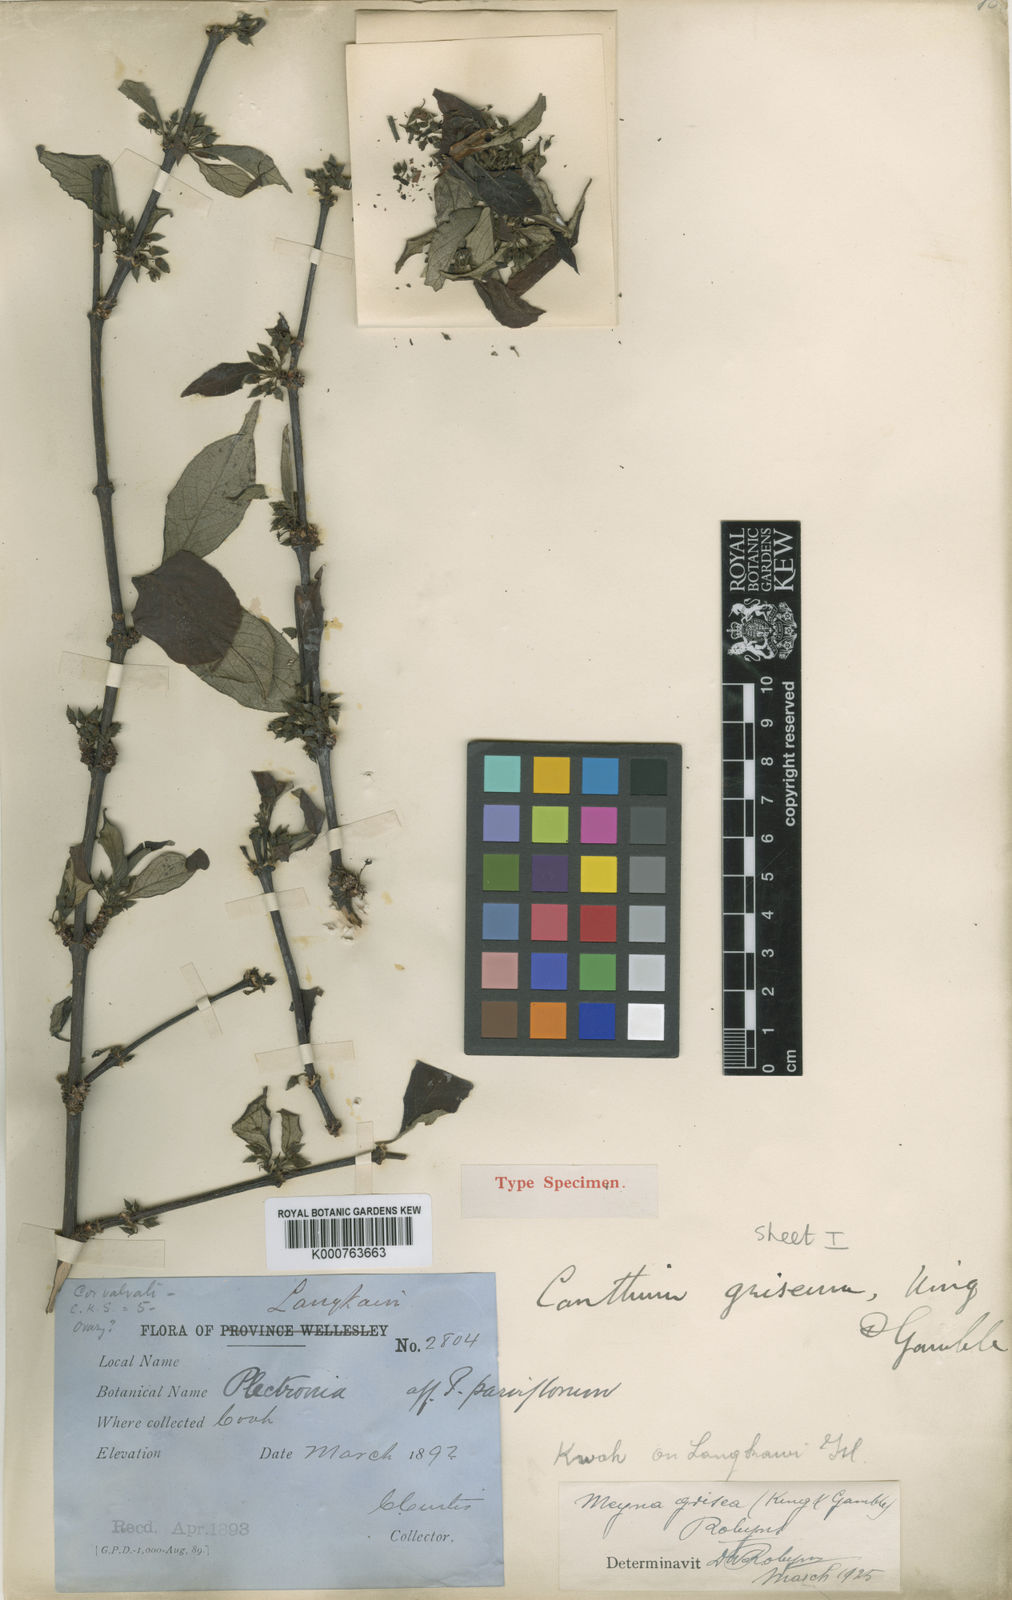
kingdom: Plantae
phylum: Tracheophyta
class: Magnoliopsida
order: Gentianales
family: Rubiaceae
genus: Meyna
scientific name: Meyna grisea
